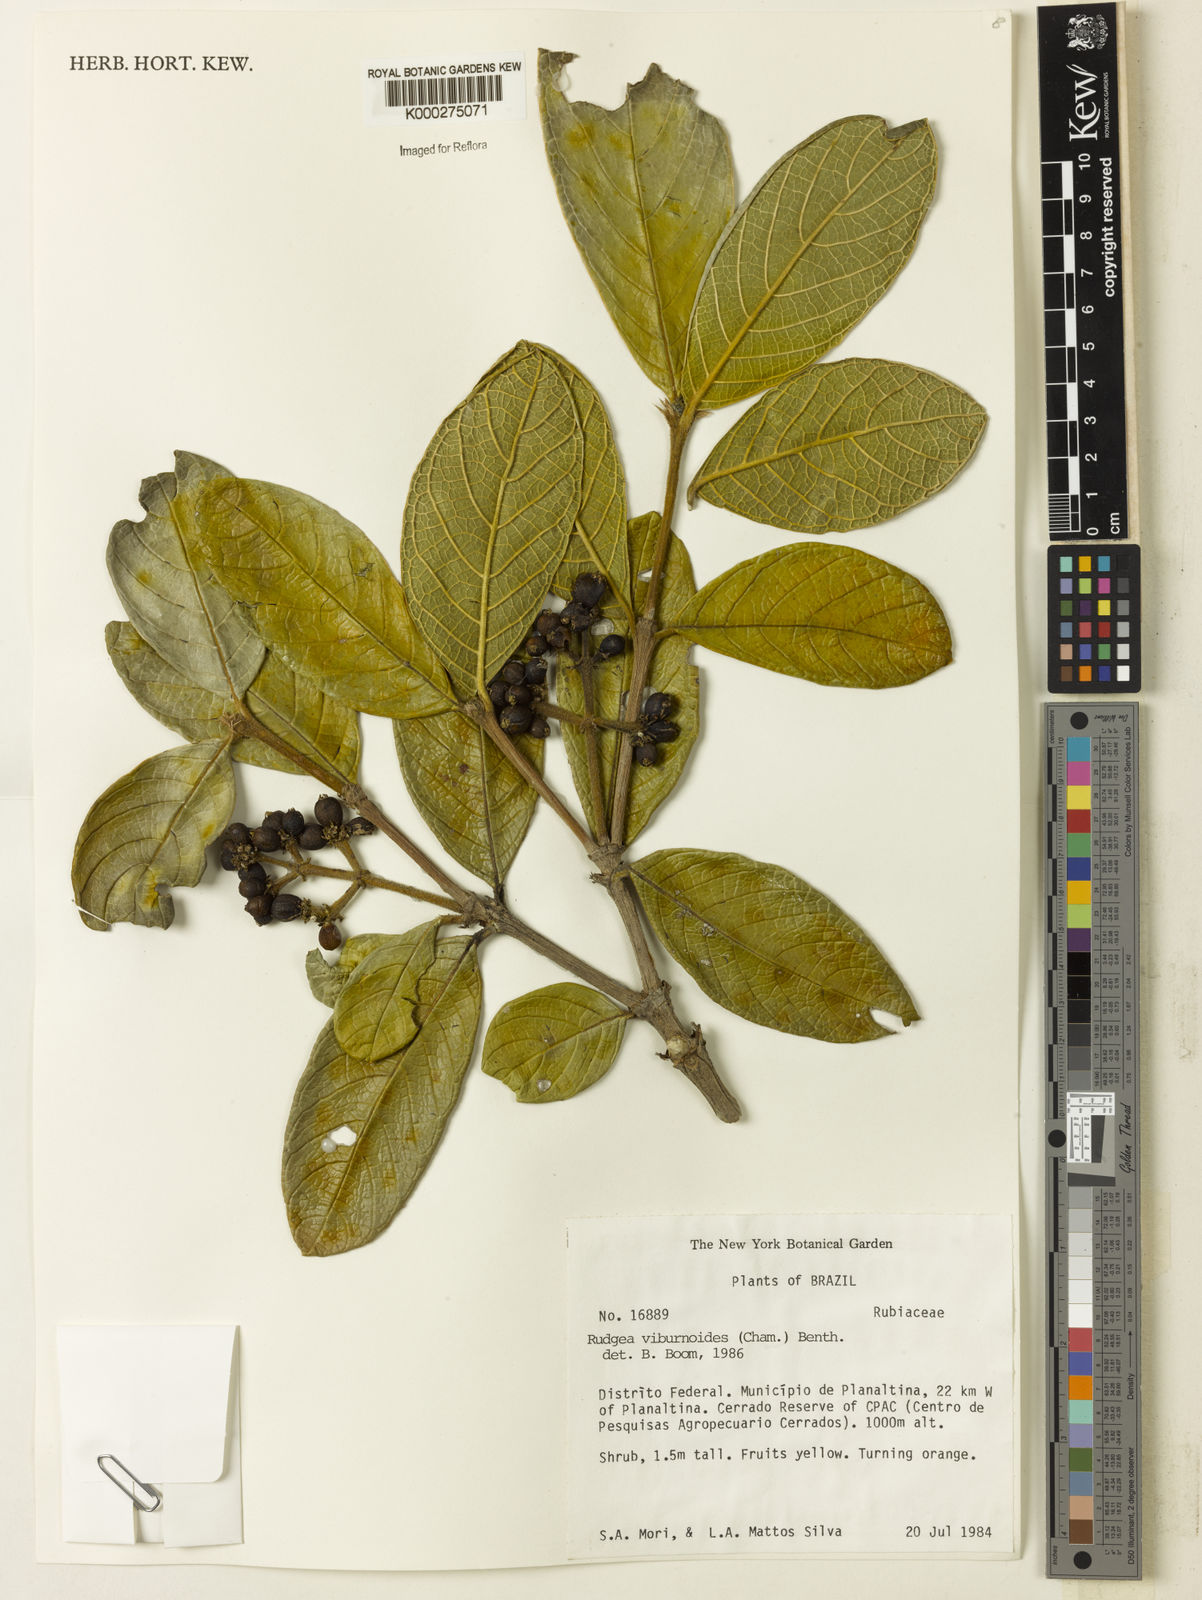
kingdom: Plantae
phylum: Tracheophyta
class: Magnoliopsida
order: Gentianales
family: Rubiaceae
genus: Rudgea
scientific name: Rudgea viburnoides
